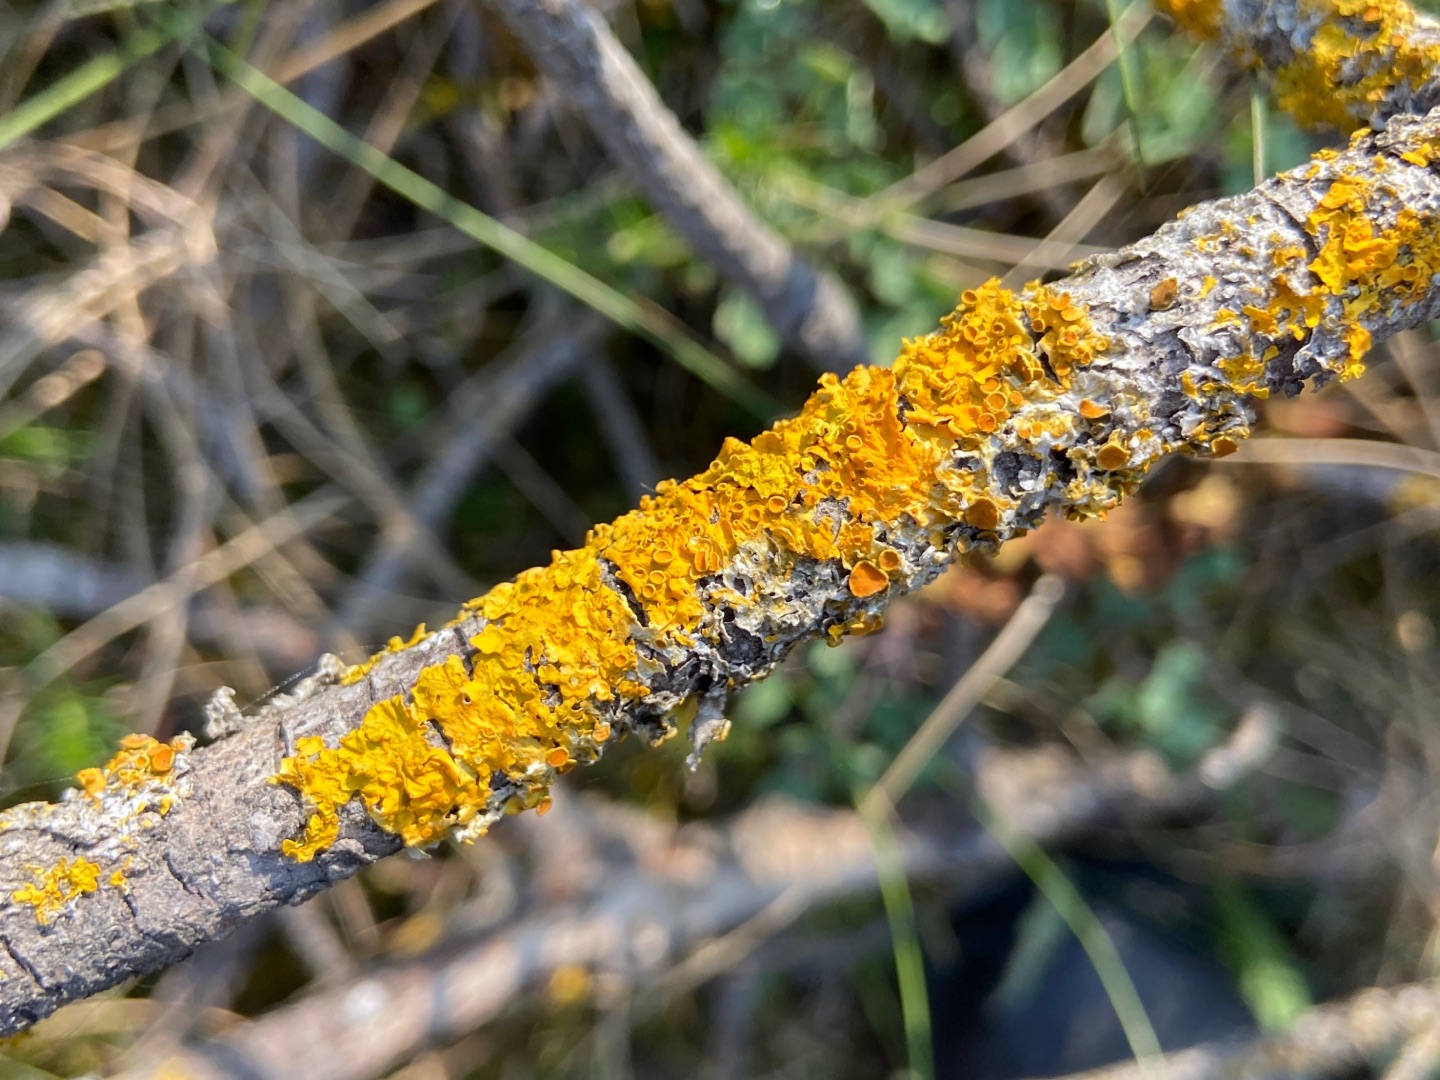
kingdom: Fungi
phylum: Ascomycota
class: Lecanoromycetes
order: Teloschistales
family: Teloschistaceae
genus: Xanthoria
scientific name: Xanthoria parietina
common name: Almindelig væggelav
